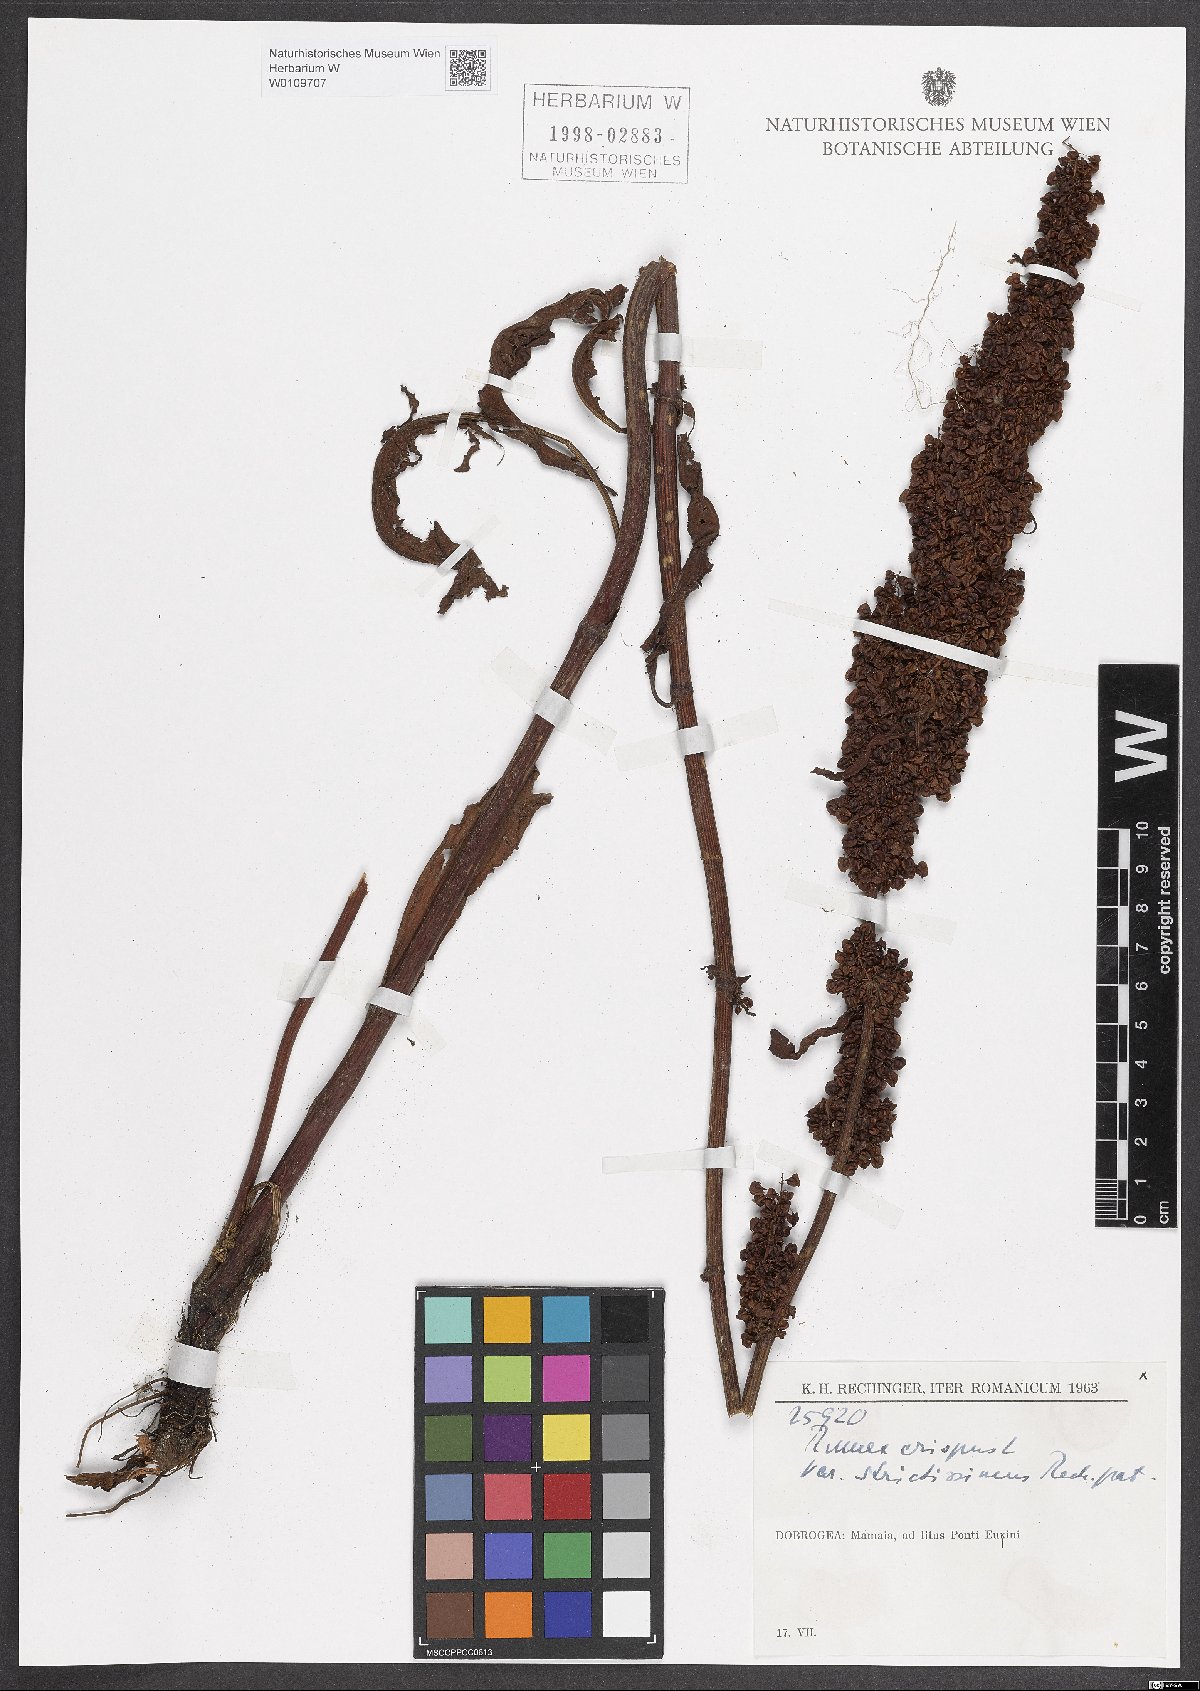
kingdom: Plantae
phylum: Tracheophyta
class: Magnoliopsida
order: Caryophyllales
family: Polygonaceae
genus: Rumex
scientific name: Rumex crispus
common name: Curled dock
